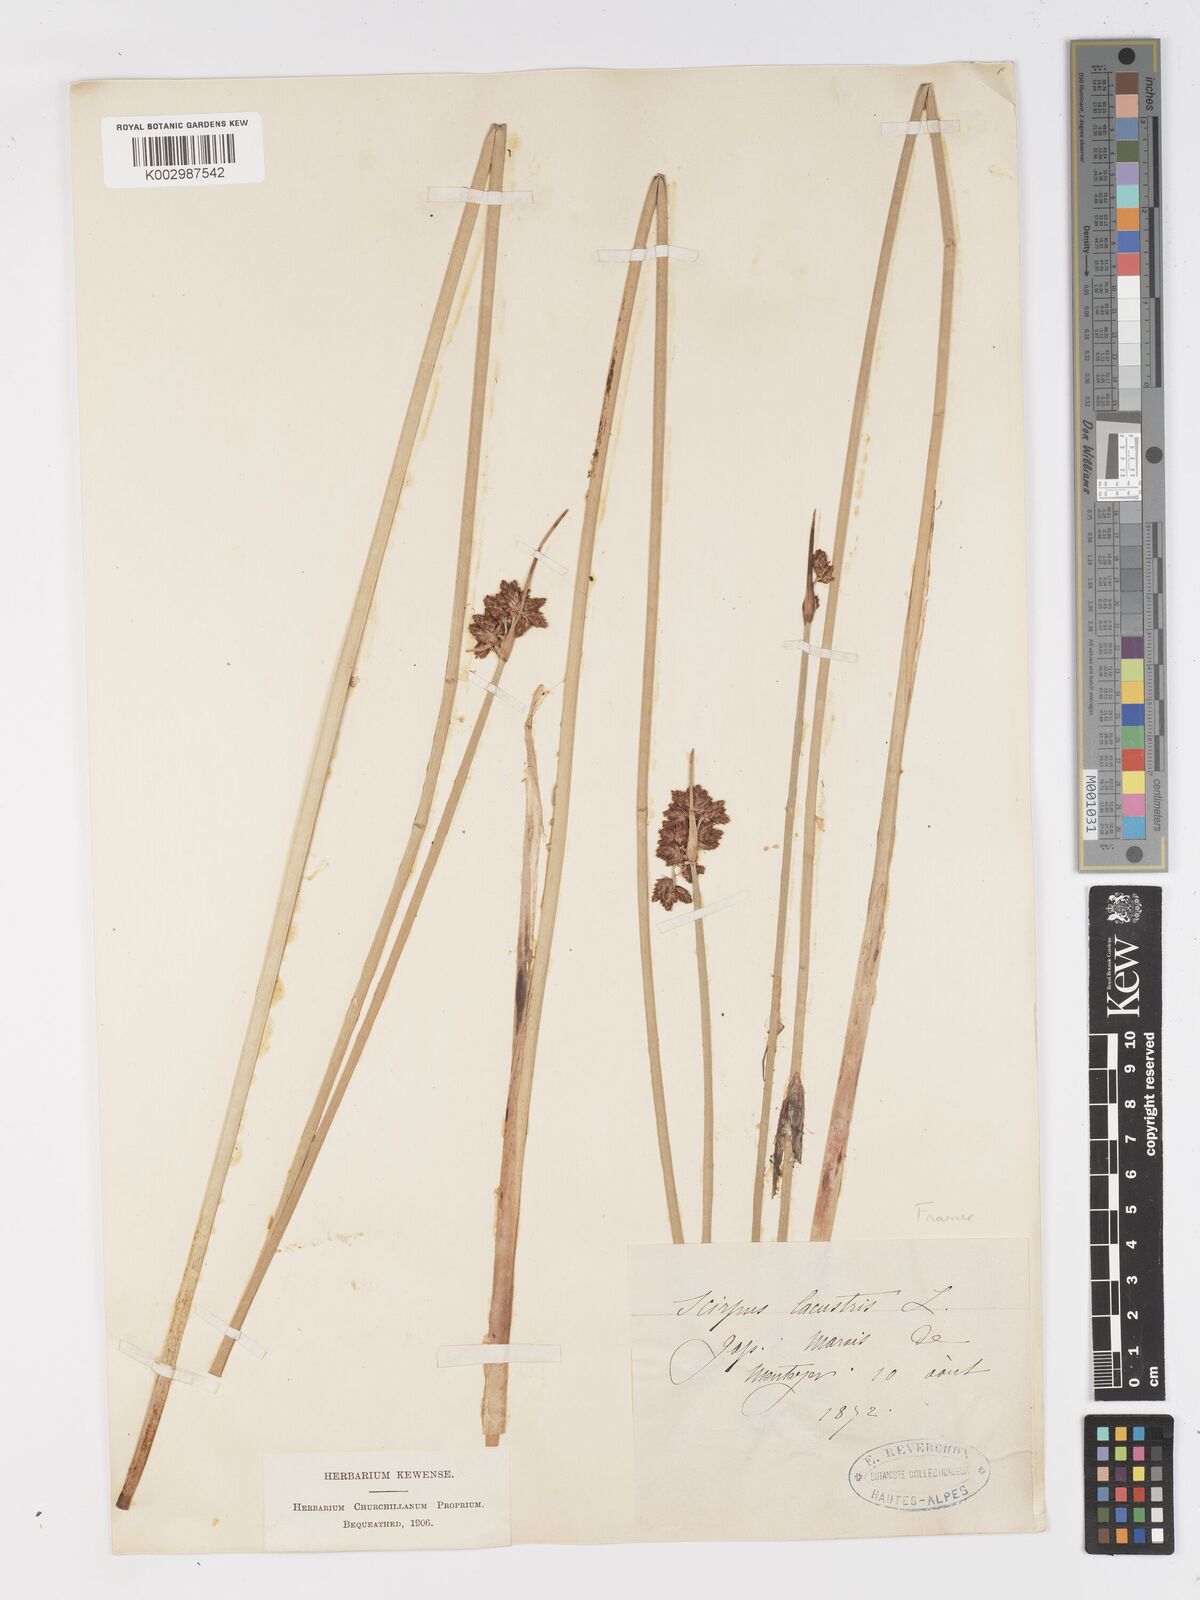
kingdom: Plantae
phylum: Tracheophyta
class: Liliopsida
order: Poales
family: Cyperaceae
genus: Schoenoplectus
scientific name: Schoenoplectus lacustris
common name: Common club-rush
